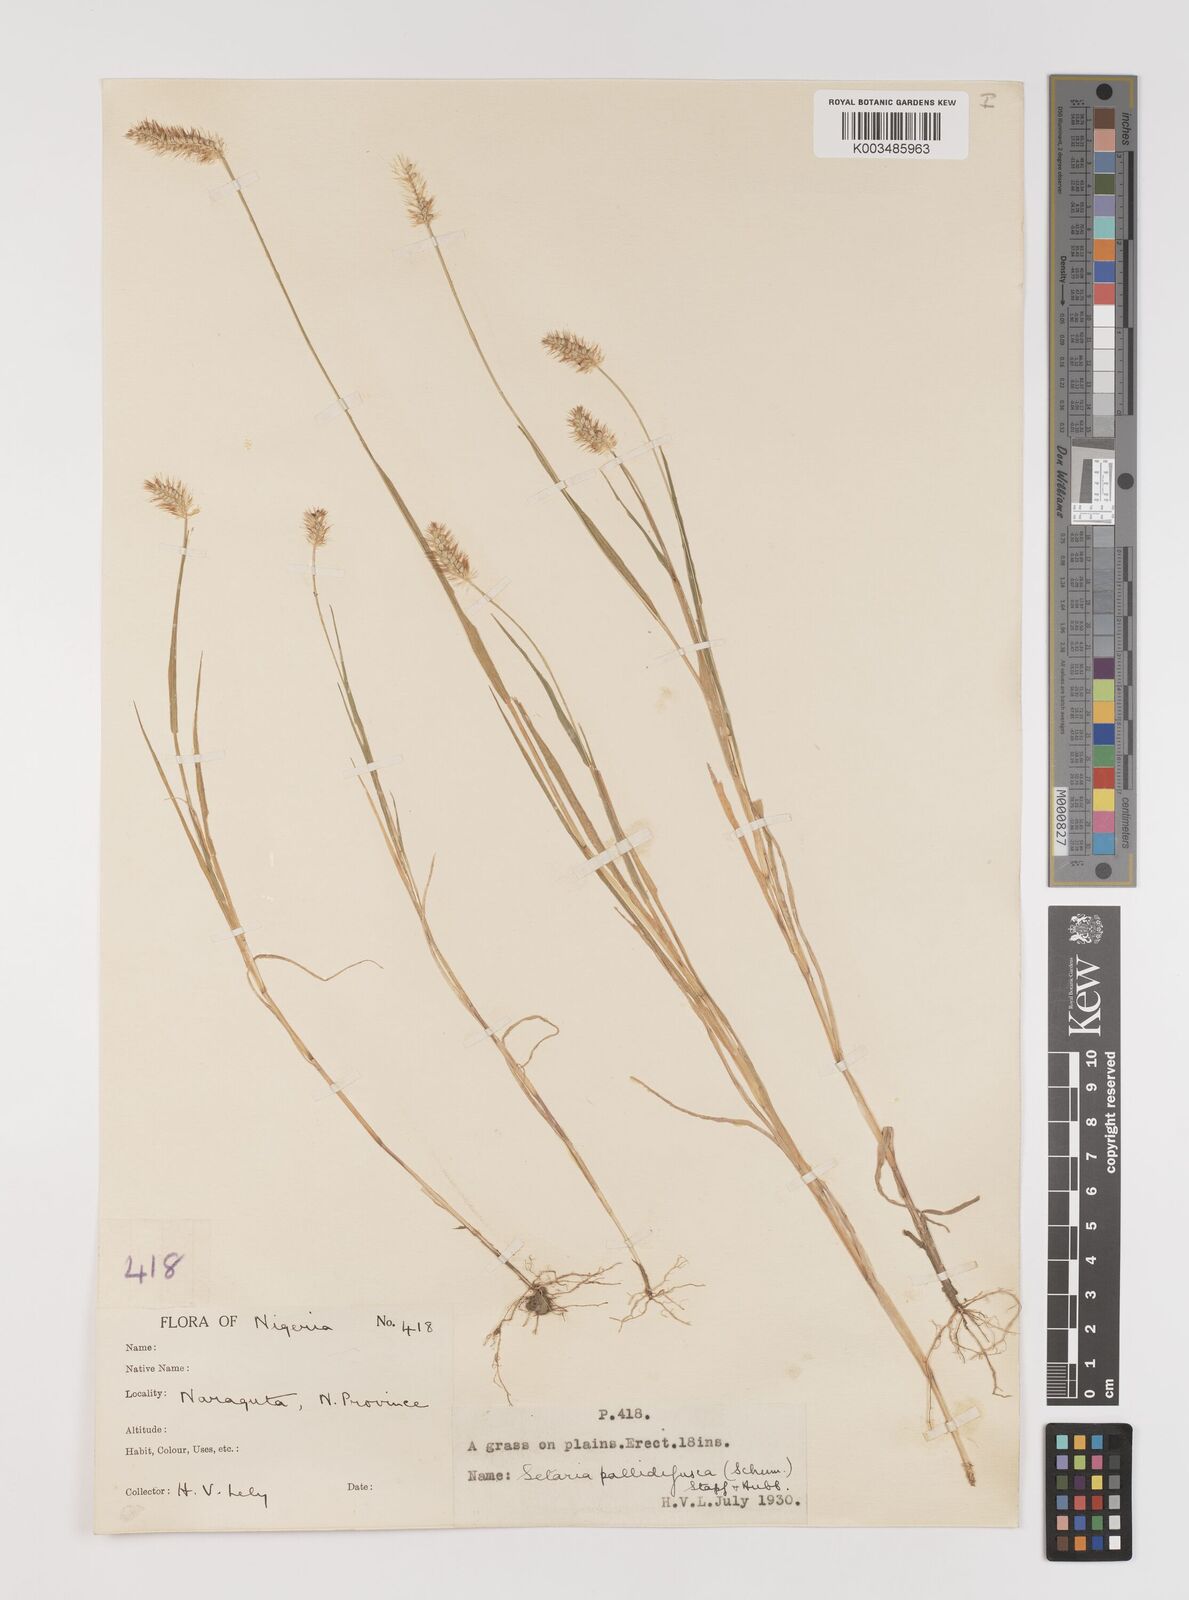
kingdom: Plantae
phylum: Tracheophyta
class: Liliopsida
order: Poales
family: Poaceae
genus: Setaria
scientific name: Setaria pumila
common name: Yellow bristle-grass
